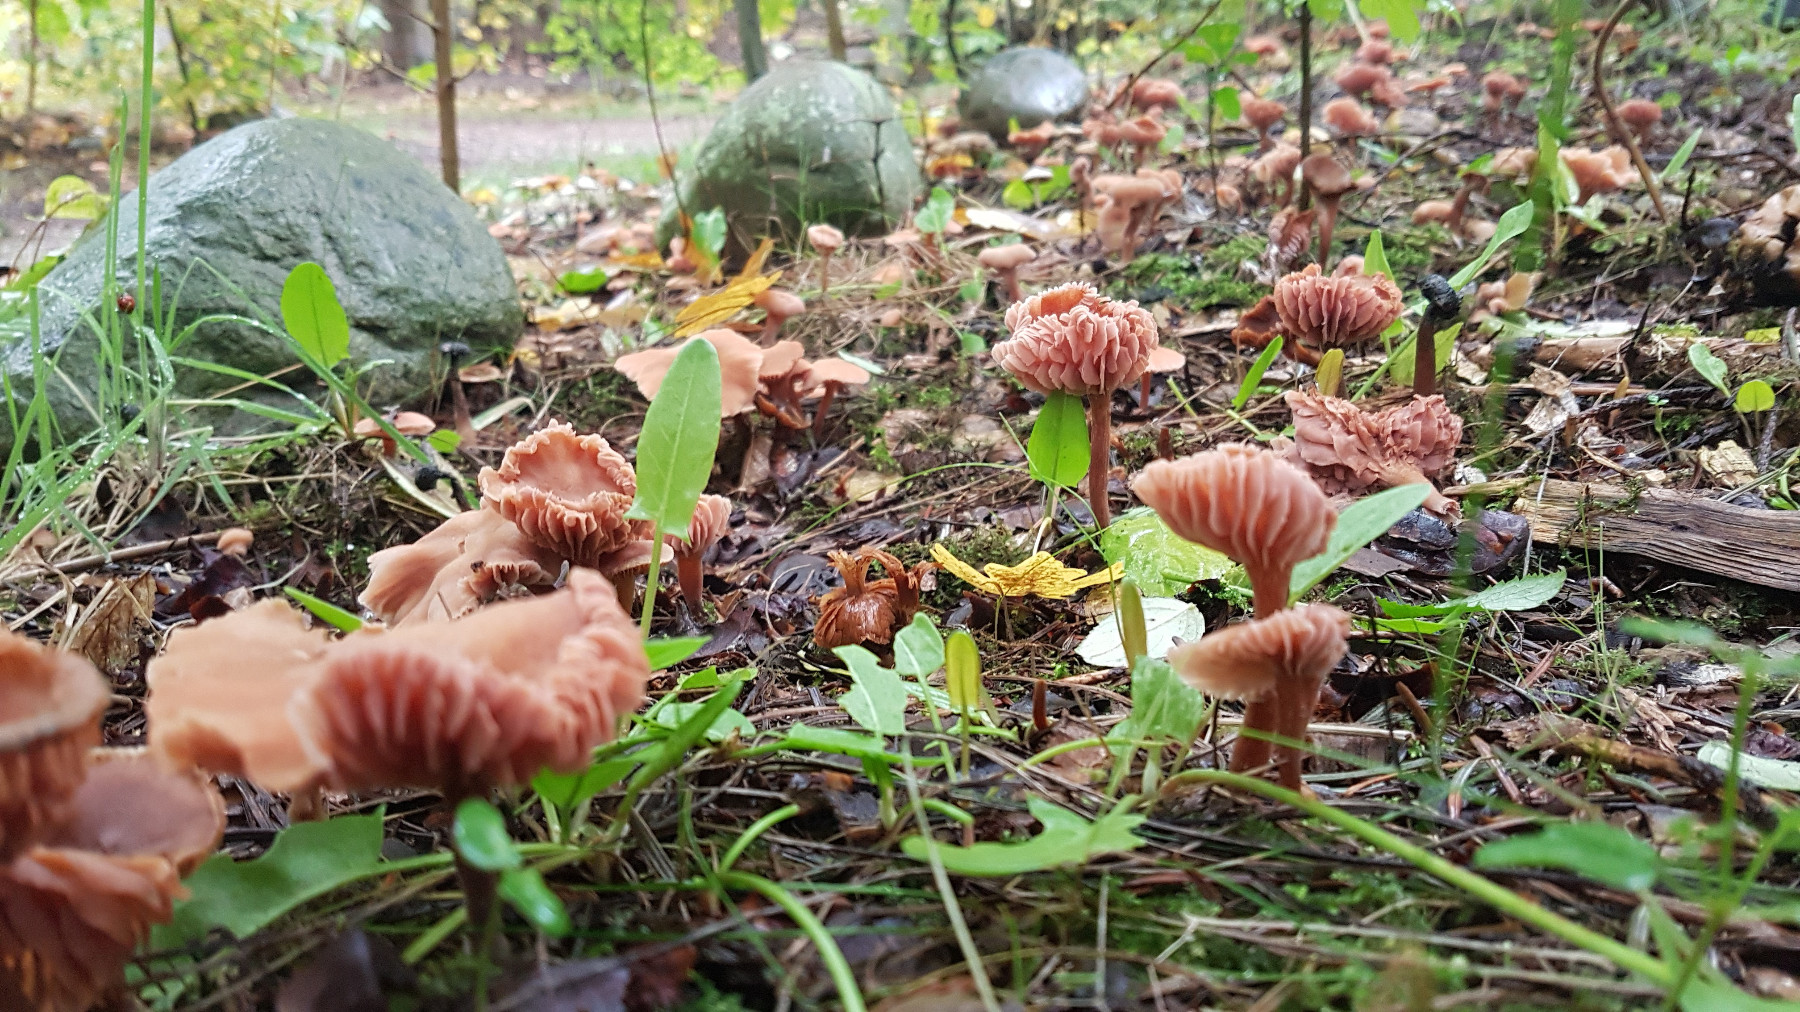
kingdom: Fungi
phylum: Basidiomycota
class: Agaricomycetes
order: Agaricales
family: Hydnangiaceae
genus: Laccaria
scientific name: Laccaria
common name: ametysthat
